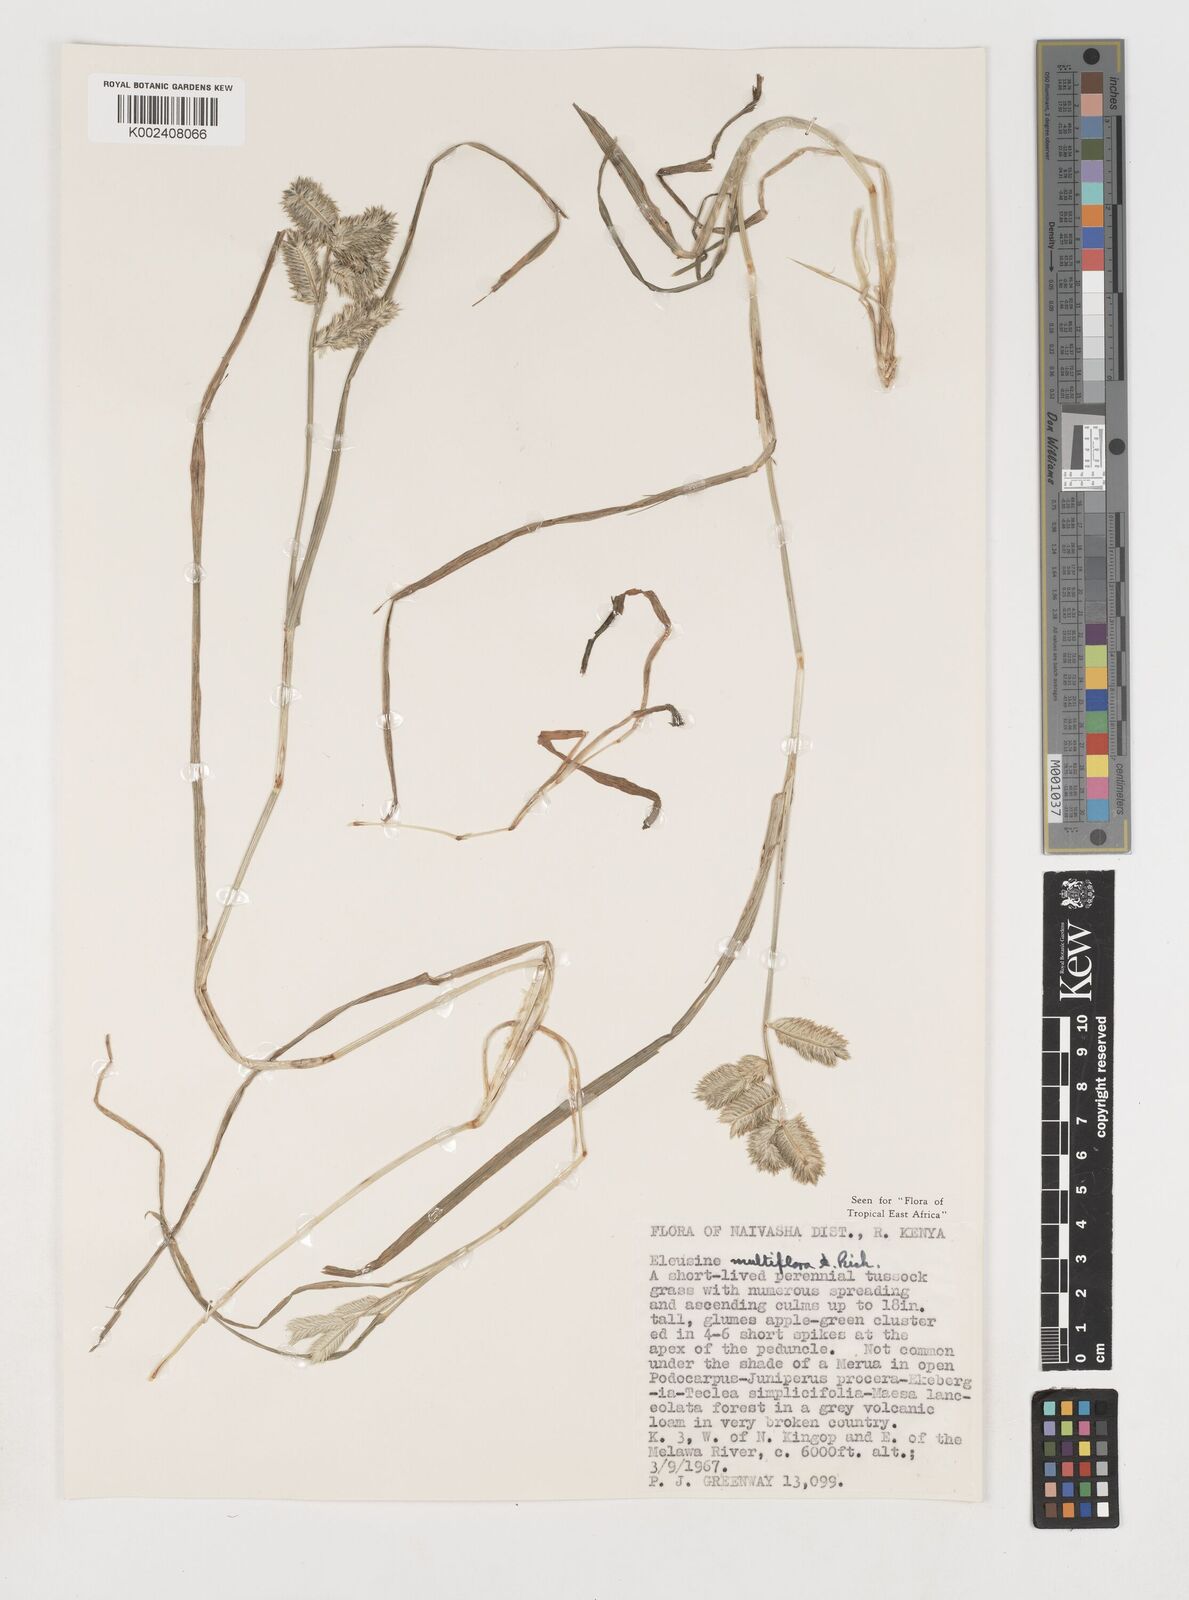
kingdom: Plantae
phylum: Tracheophyta
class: Liliopsida
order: Poales
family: Poaceae
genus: Eleusine
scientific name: Eleusine multiflora
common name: Fat-spiked yard-grass
